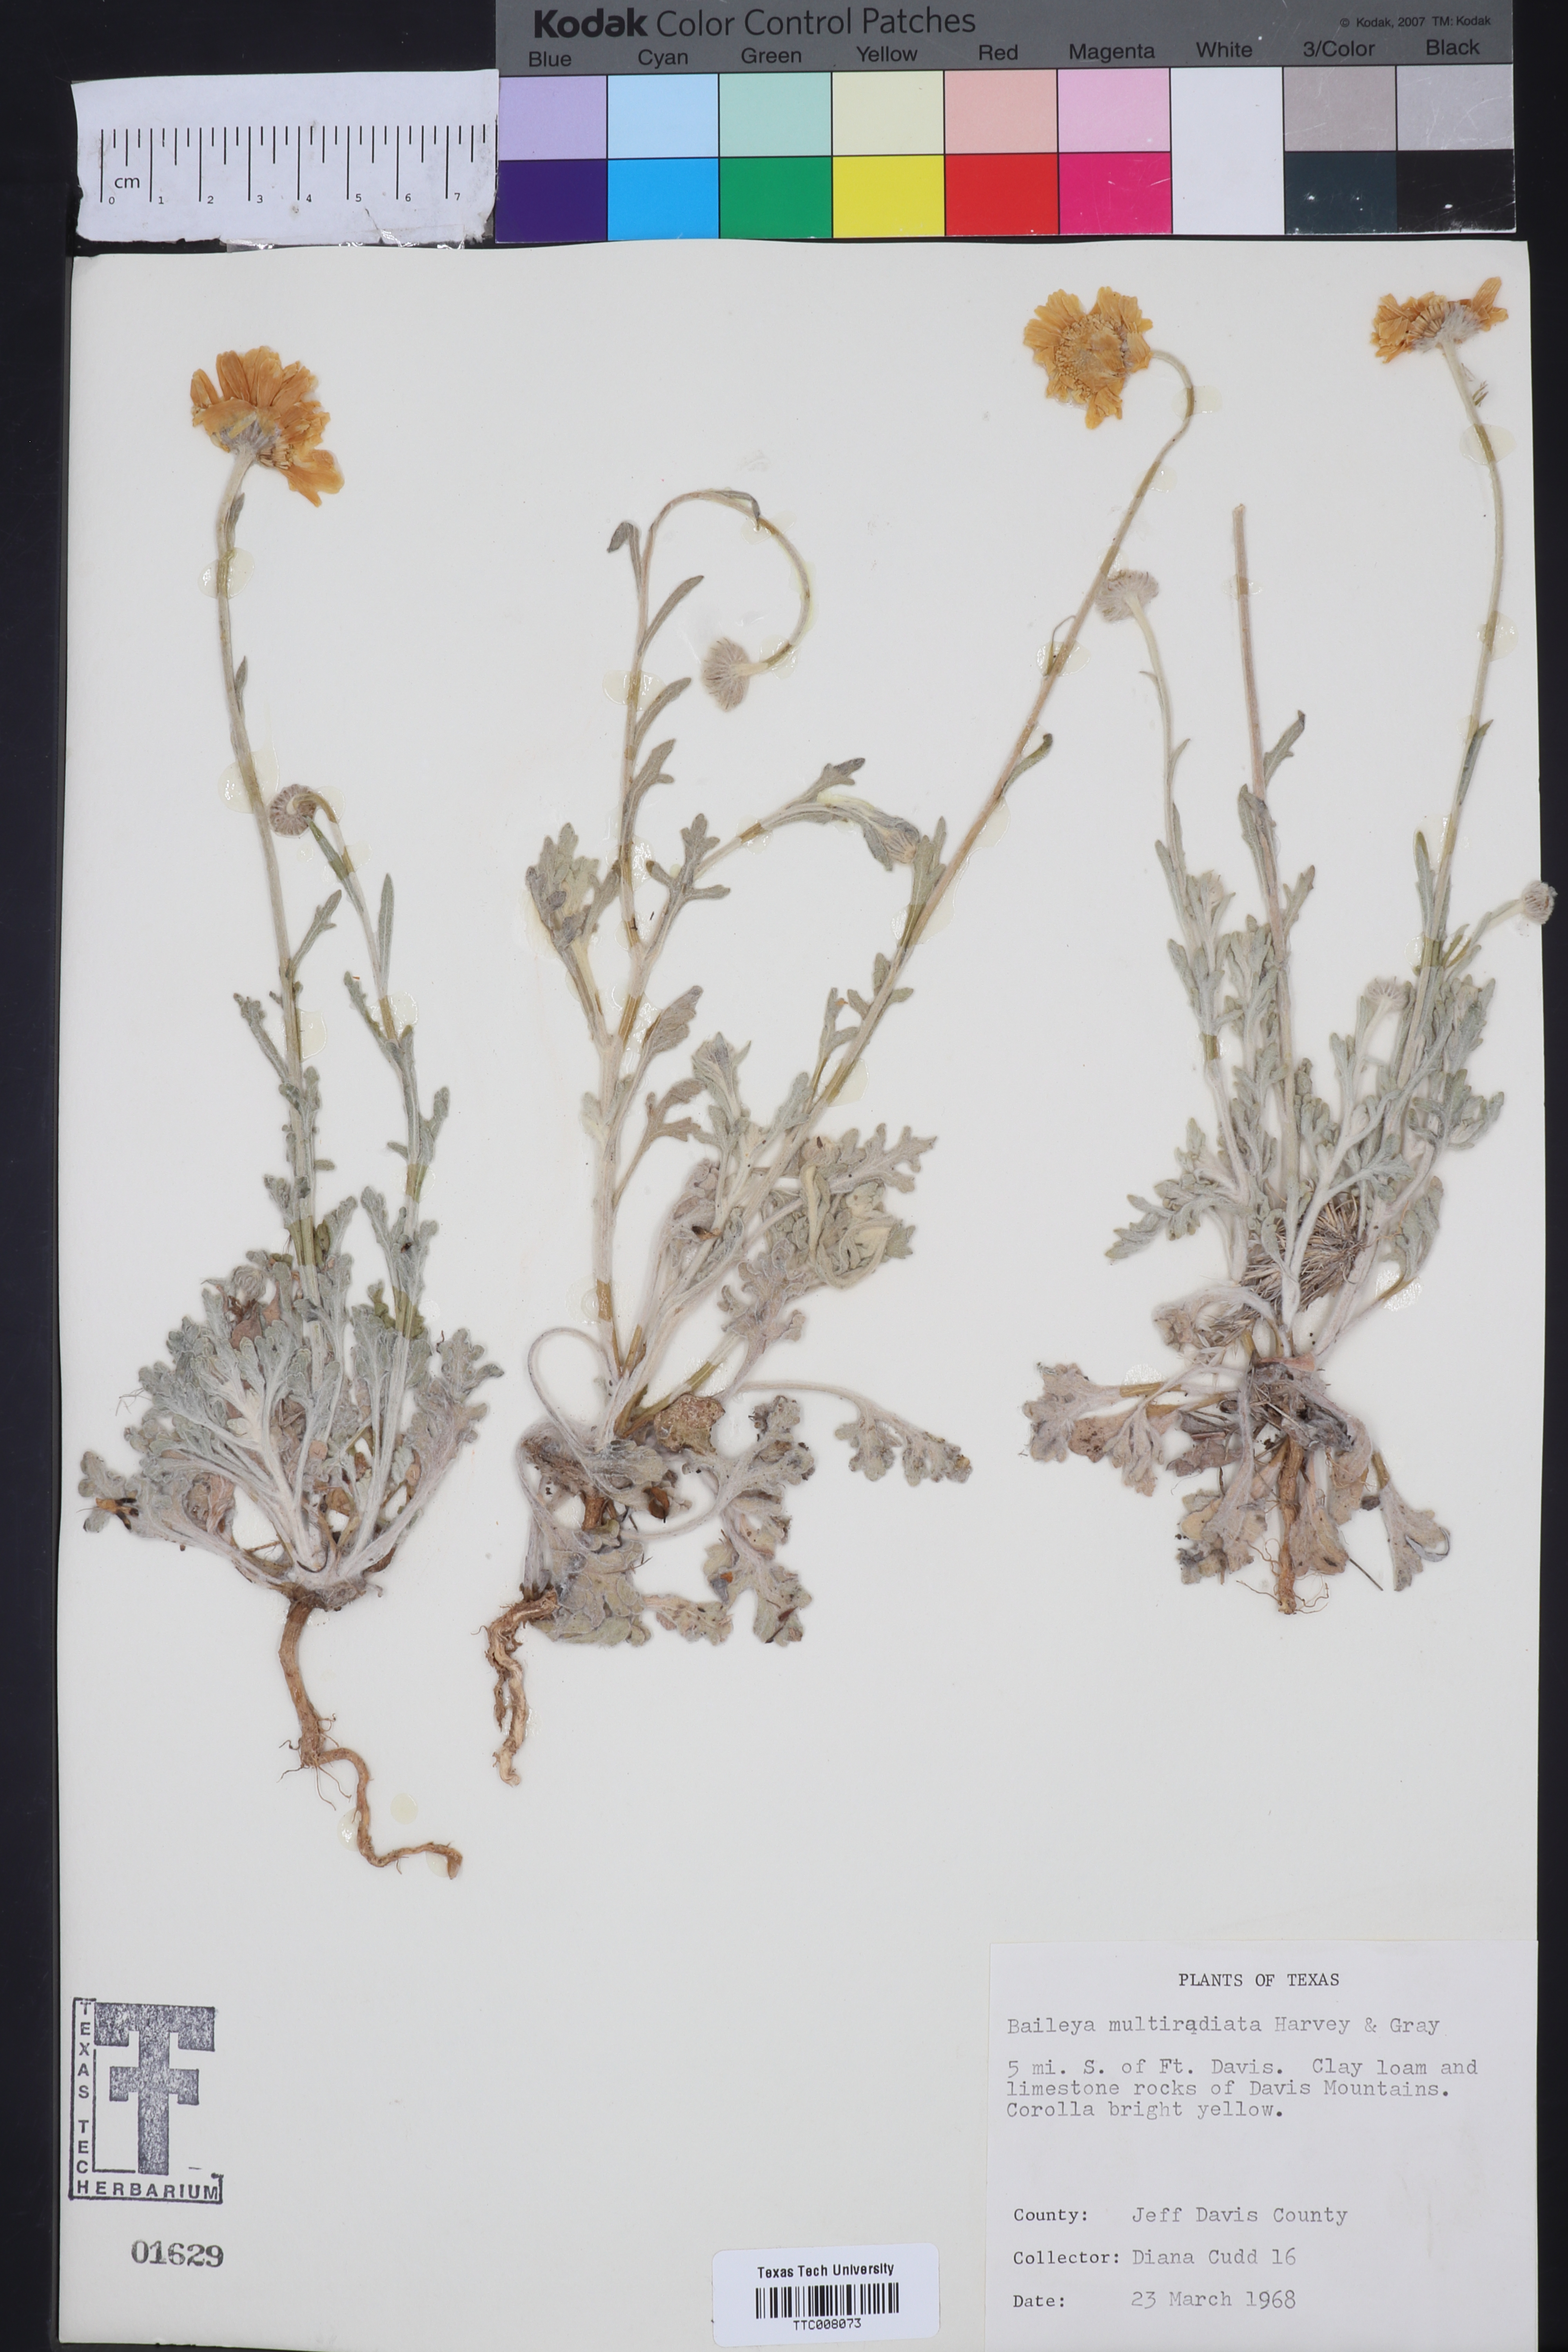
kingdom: Plantae
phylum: Tracheophyta
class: Magnoliopsida
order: Asterales
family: Asteraceae
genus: Baileya
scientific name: Baileya multiradiata
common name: Desert-marigold
